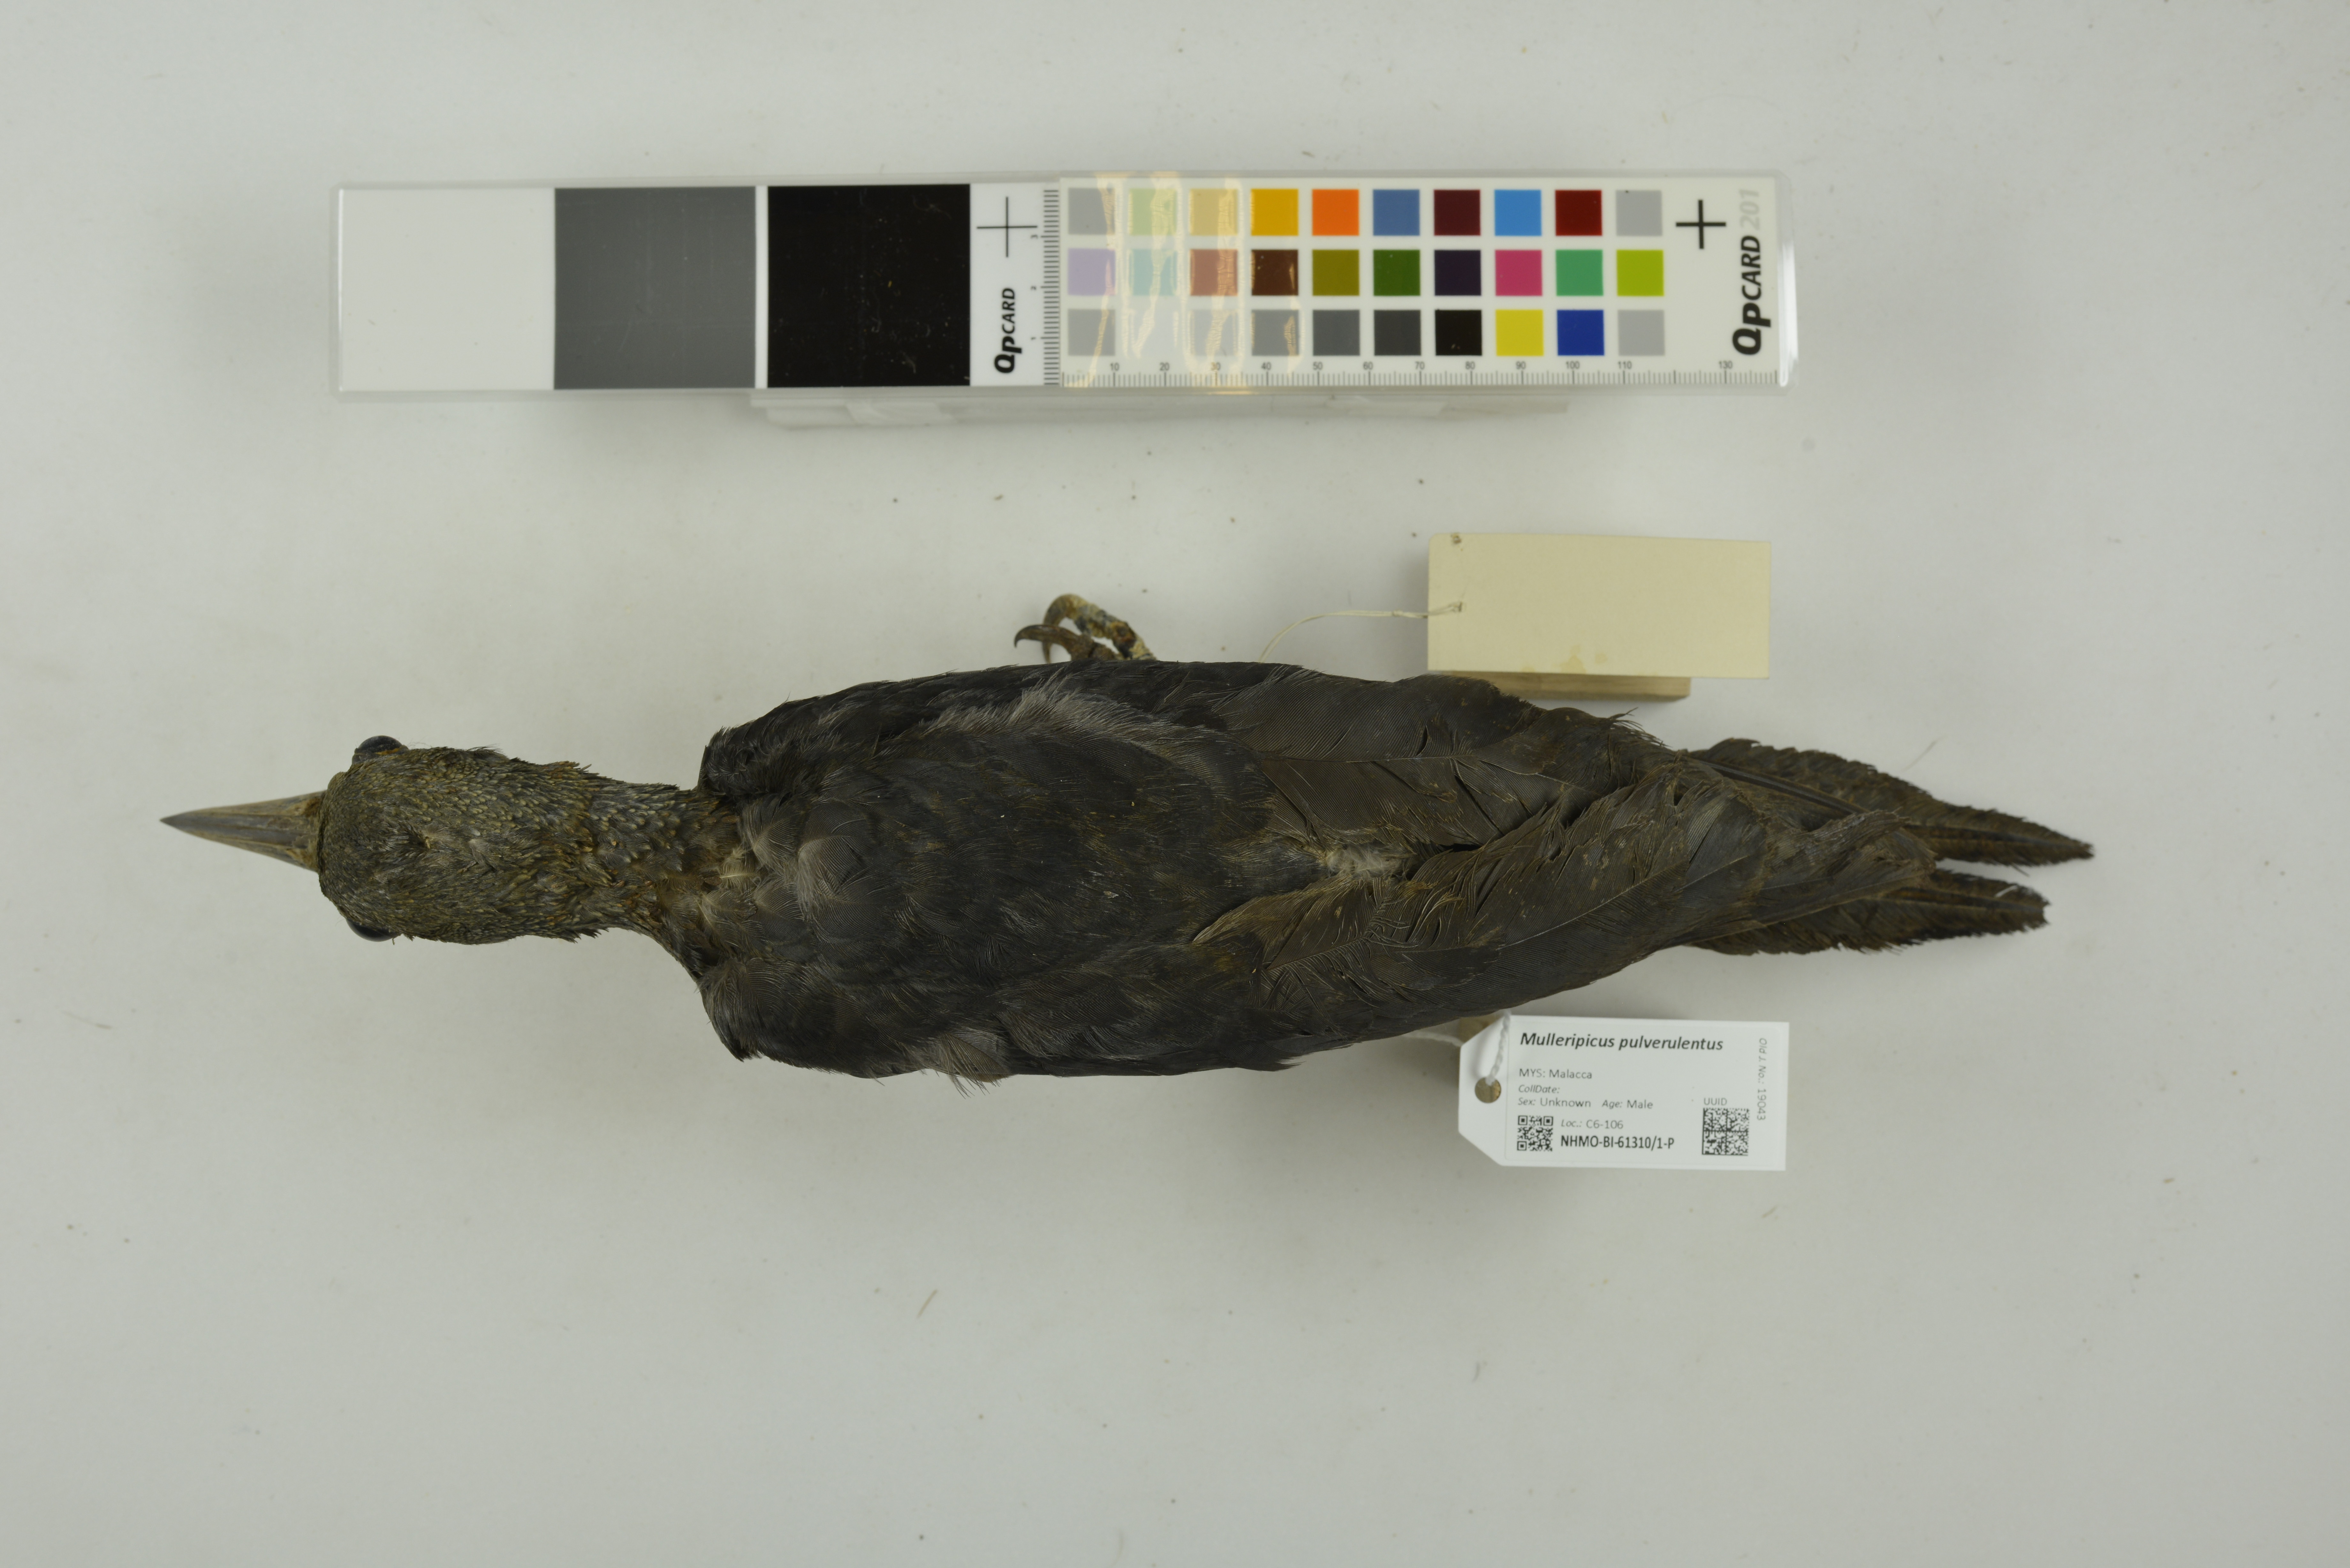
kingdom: Animalia
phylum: Chordata
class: Aves
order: Piciformes
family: Picidae
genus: Mulleripicus
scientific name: Mulleripicus pulverulentus
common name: Great slaty woodpecker
